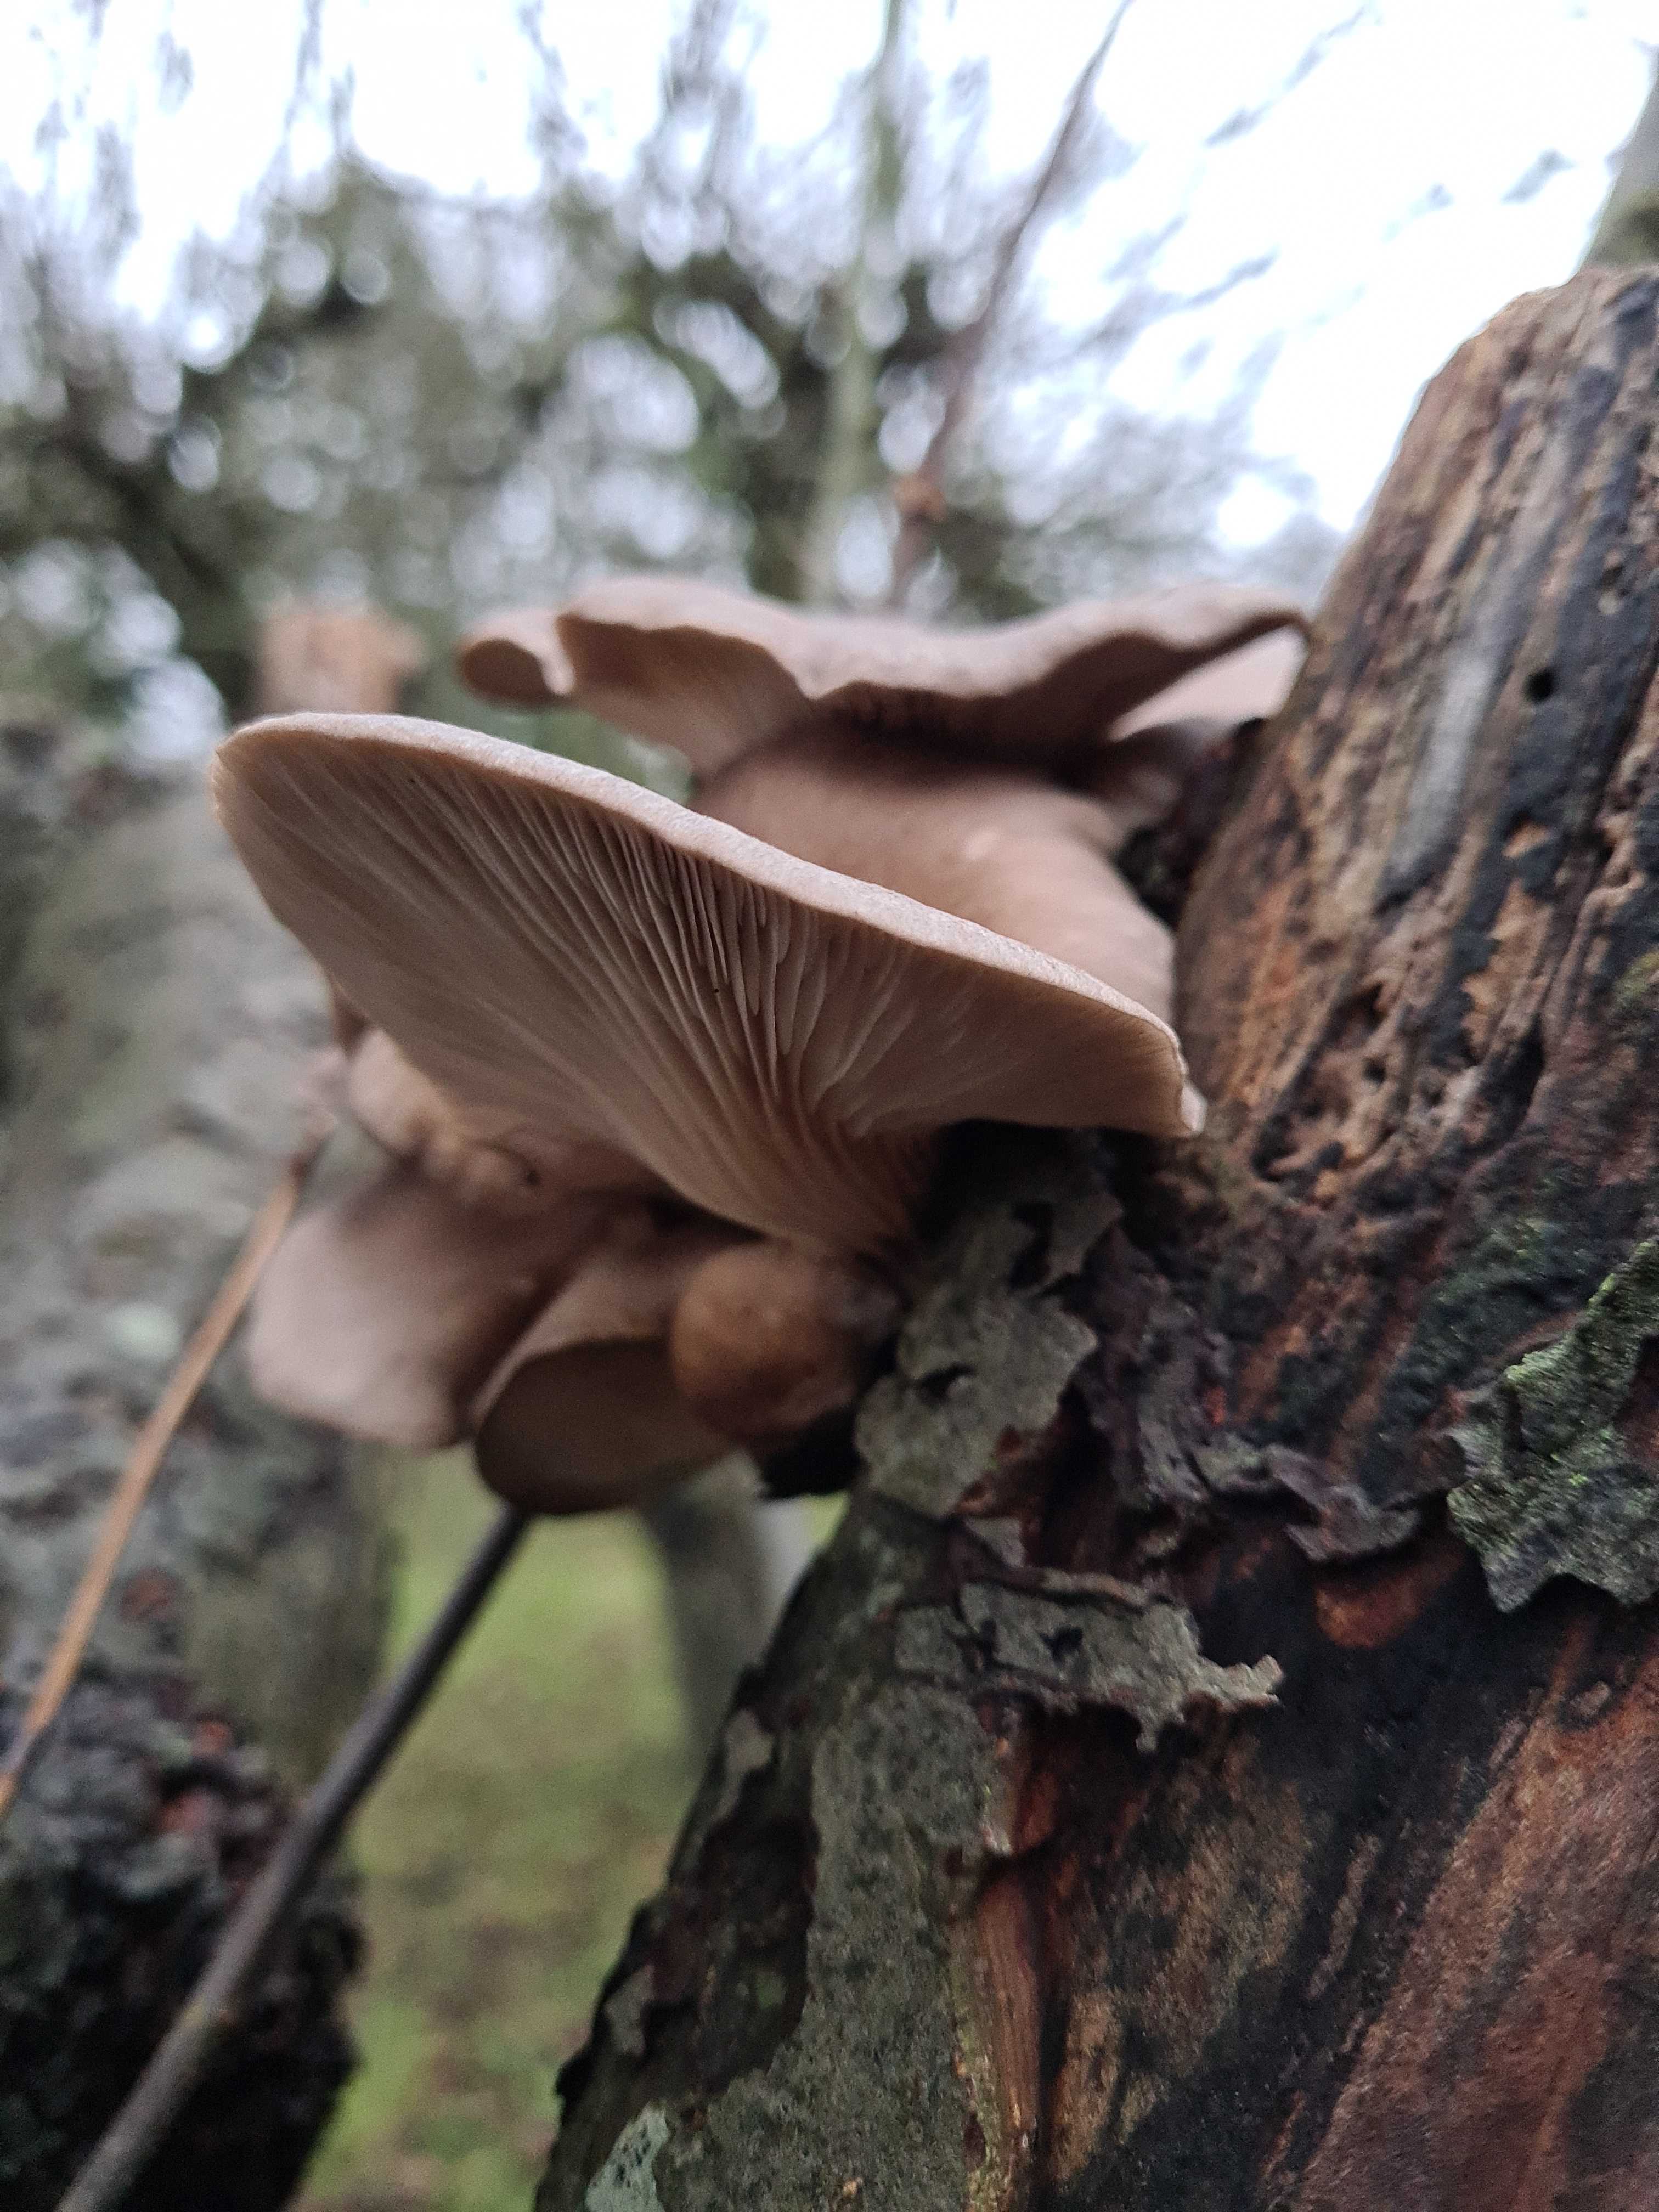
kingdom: Fungi
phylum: Basidiomycota
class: Agaricomycetes
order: Agaricales
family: Pleurotaceae
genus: Pleurotus
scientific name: Pleurotus ostreatus
